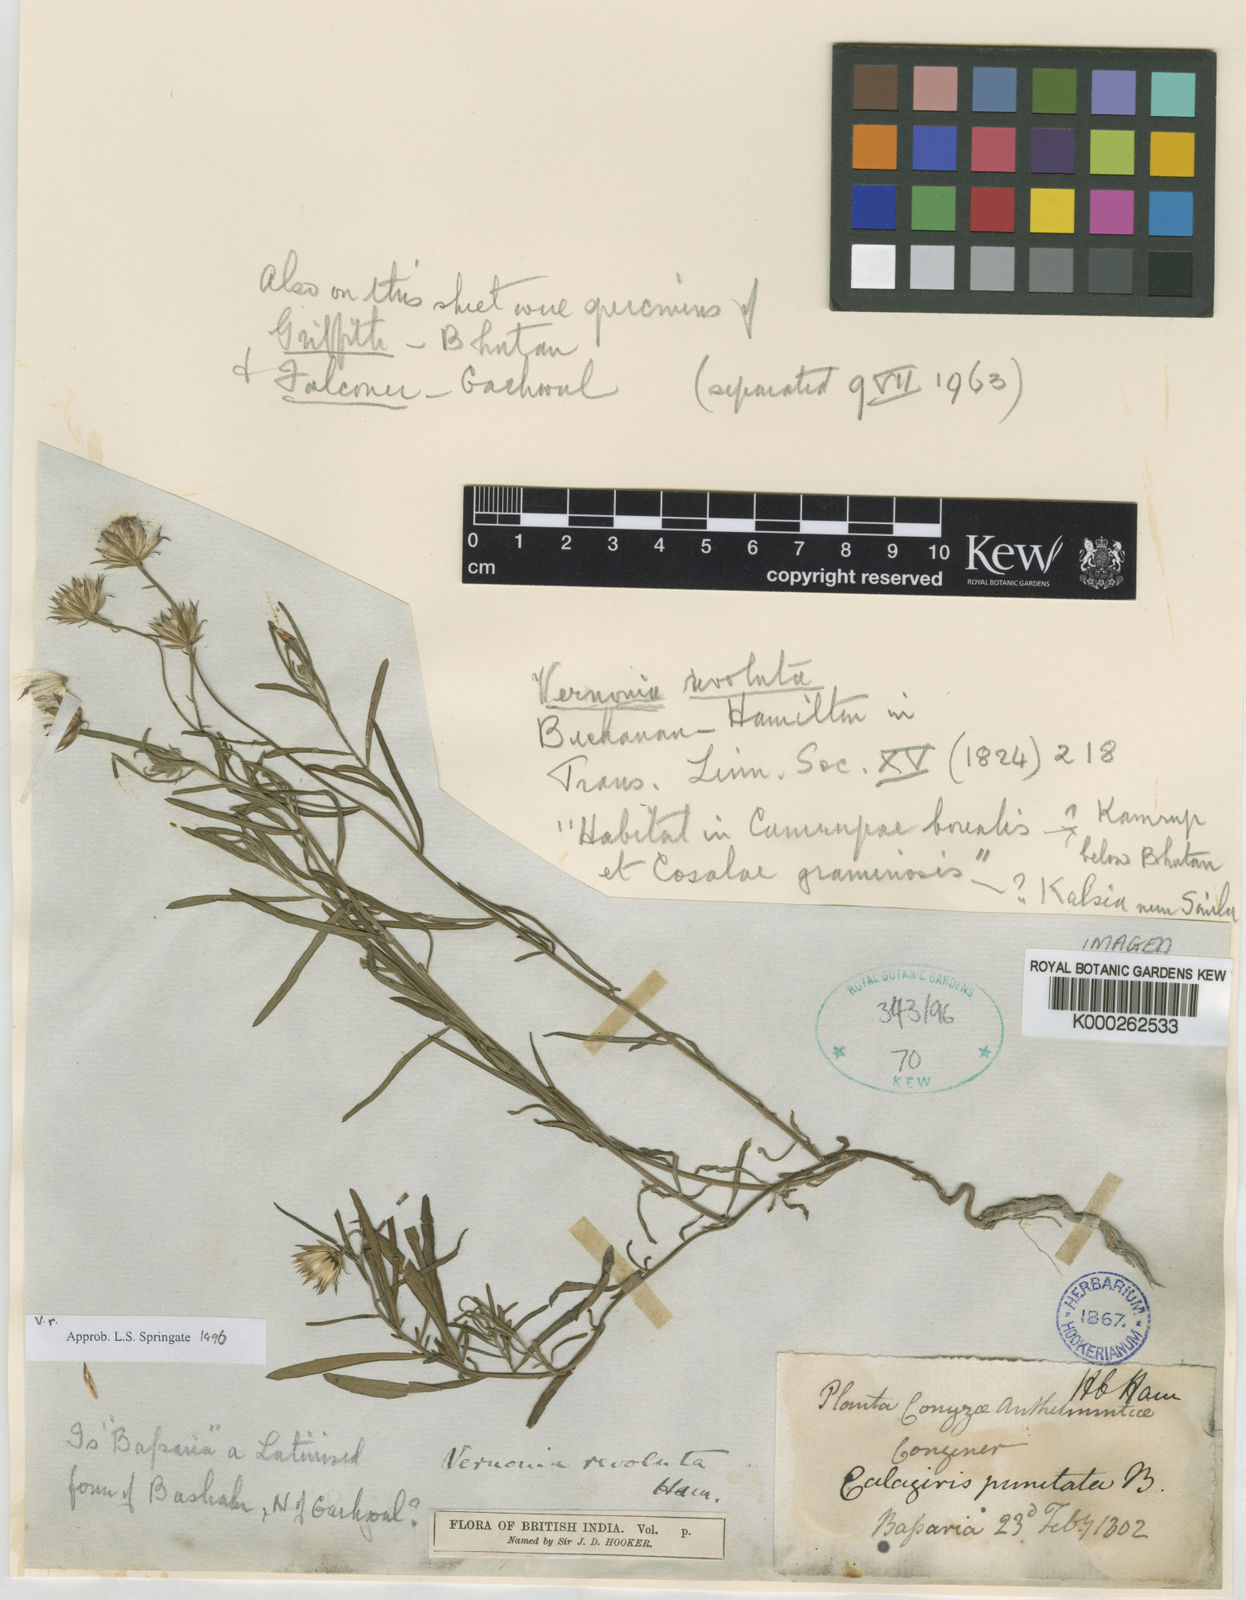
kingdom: Plantae
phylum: Tracheophyta
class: Magnoliopsida
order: Asterales
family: Asteraceae
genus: Vernonia
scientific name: Vernonia revoluta
